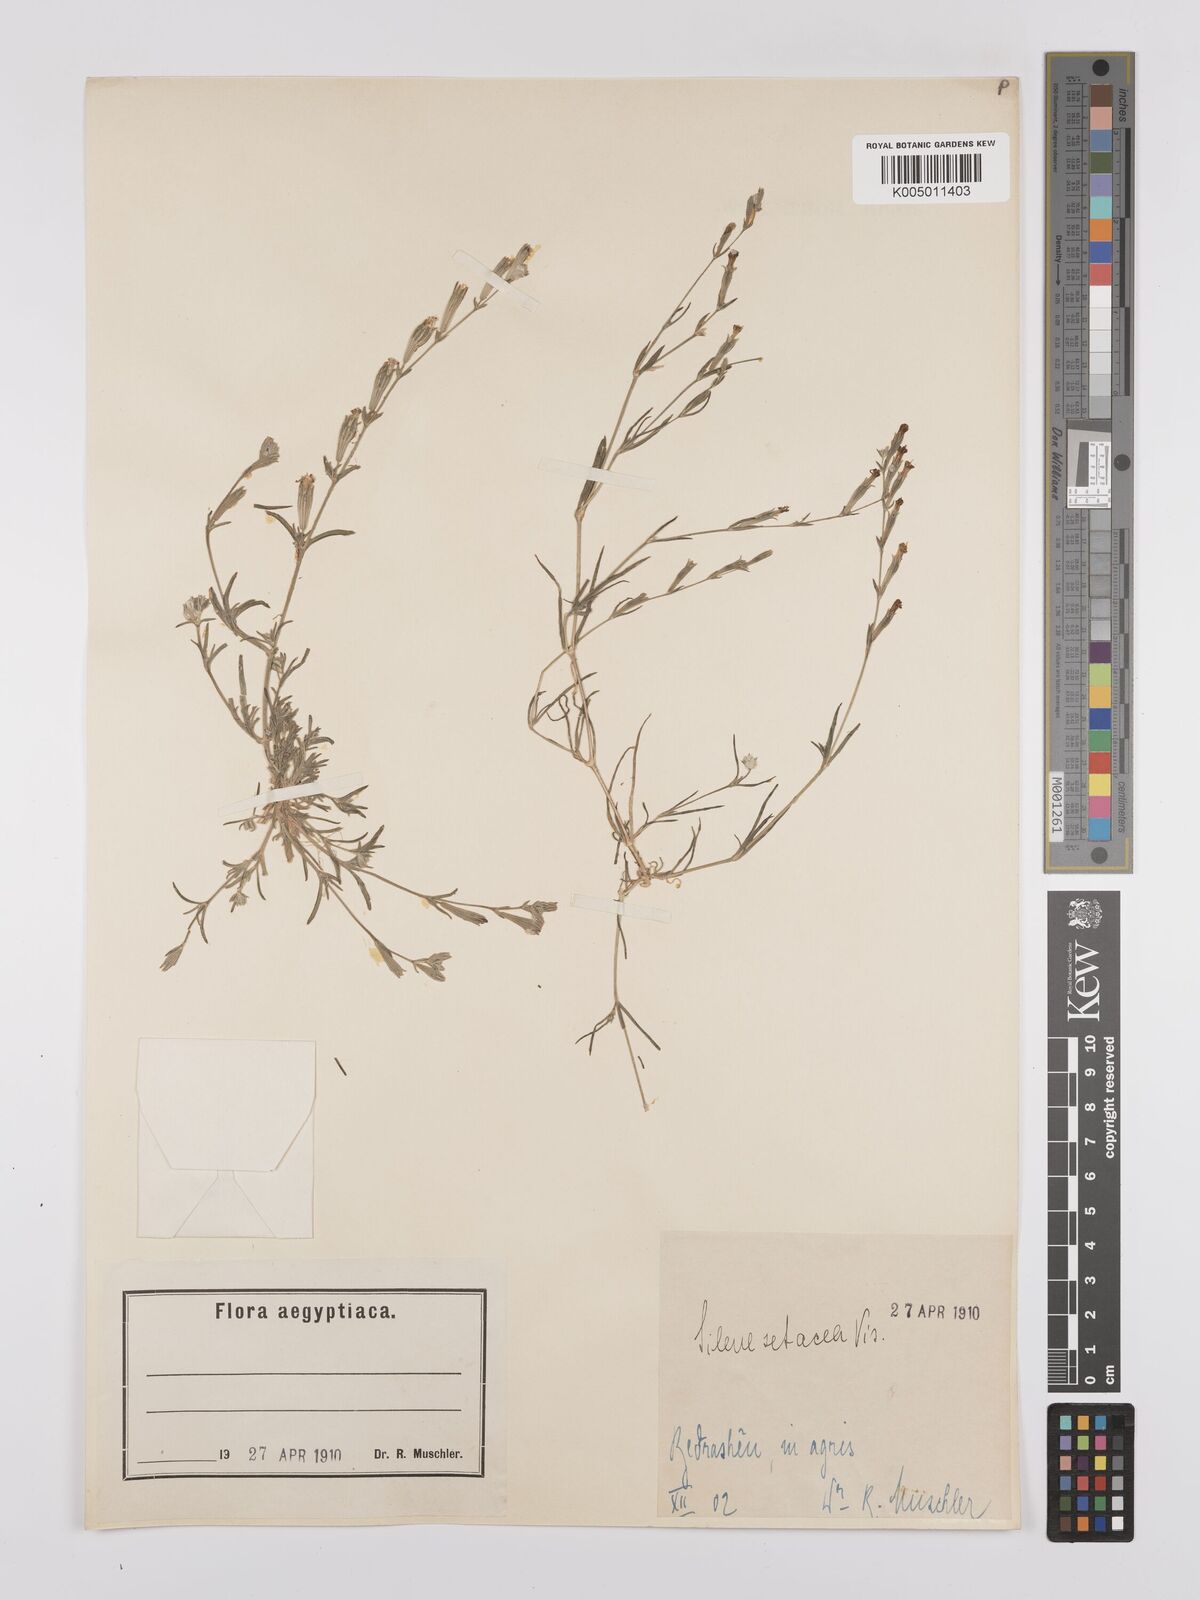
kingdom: Plantae
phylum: Tracheophyta
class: Magnoliopsida
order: Caryophyllales
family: Caryophyllaceae
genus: Silene
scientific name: Silene vivianii
